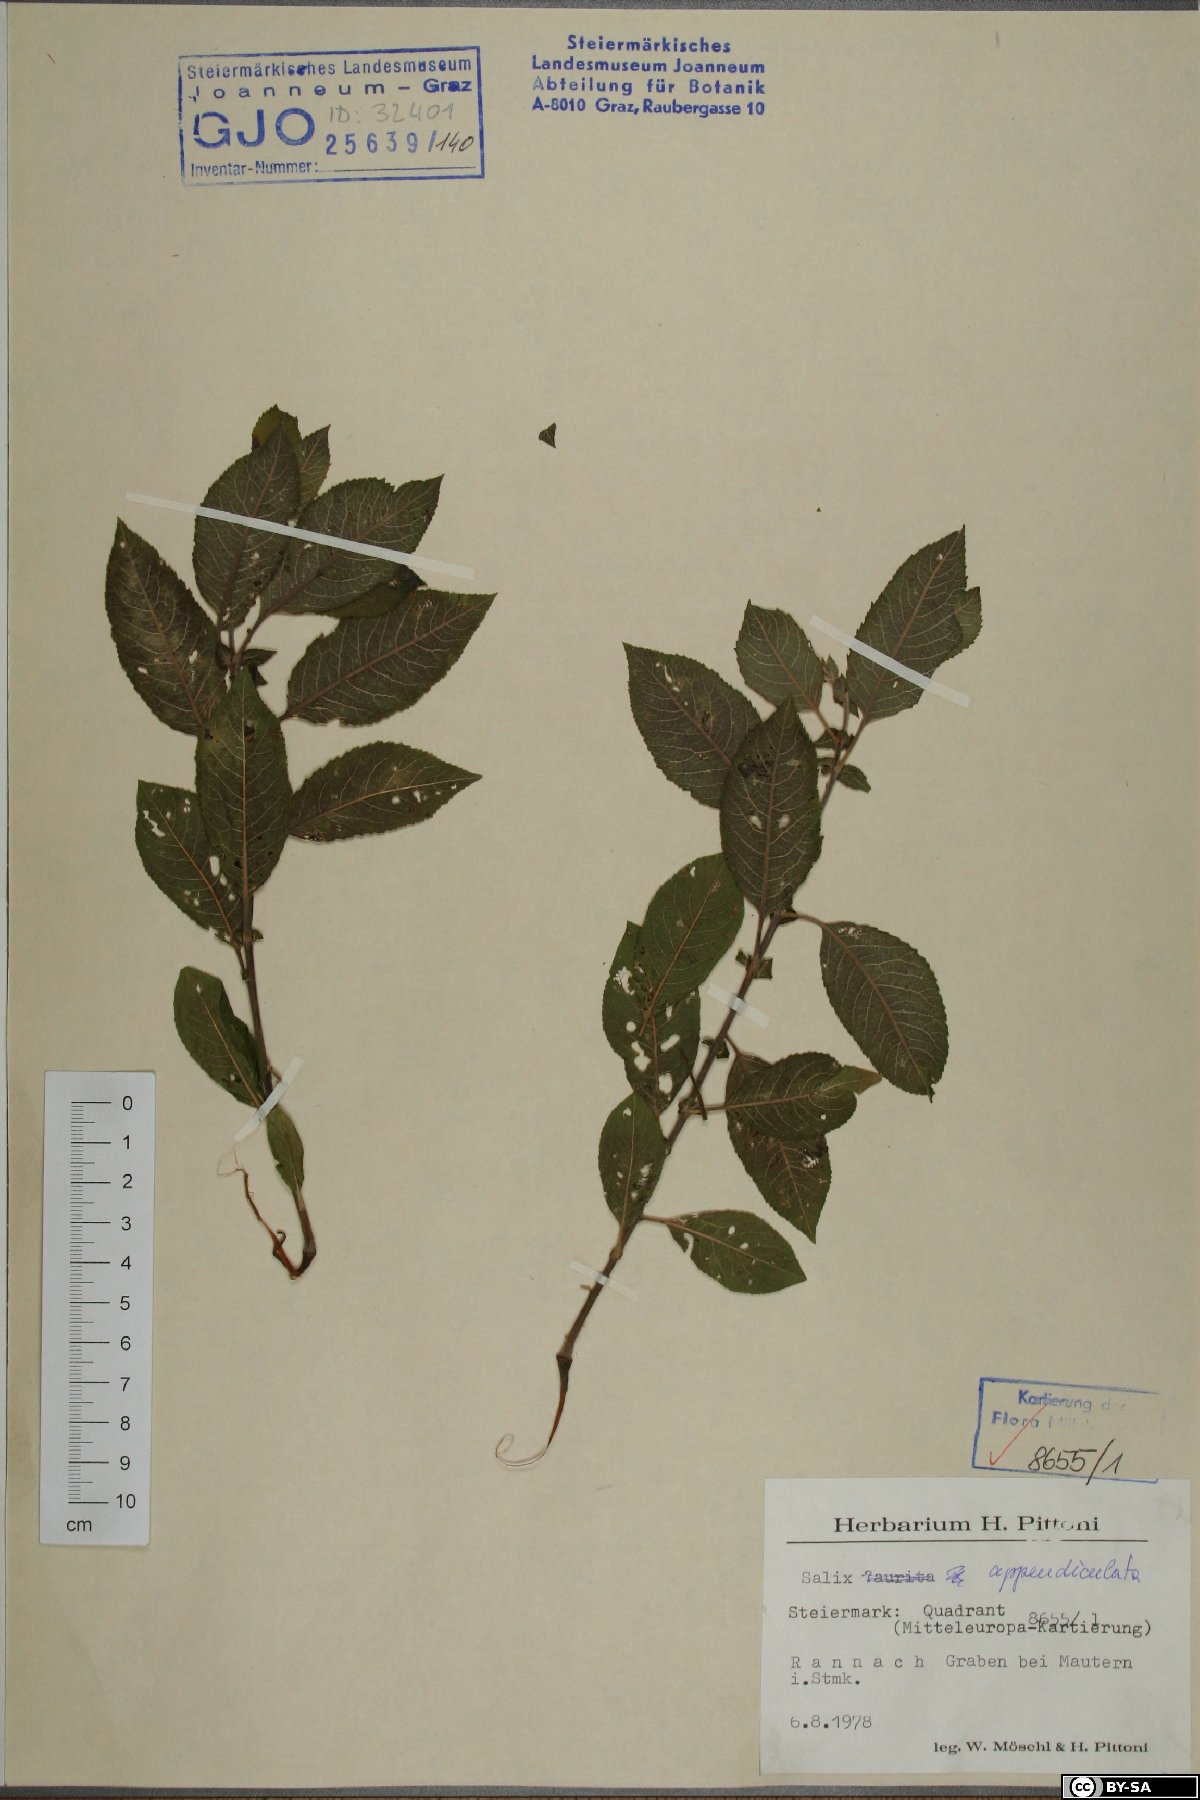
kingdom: Plantae
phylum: Tracheophyta
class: Magnoliopsida
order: Malpighiales
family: Salicaceae
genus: Salix
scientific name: Salix appendiculata
